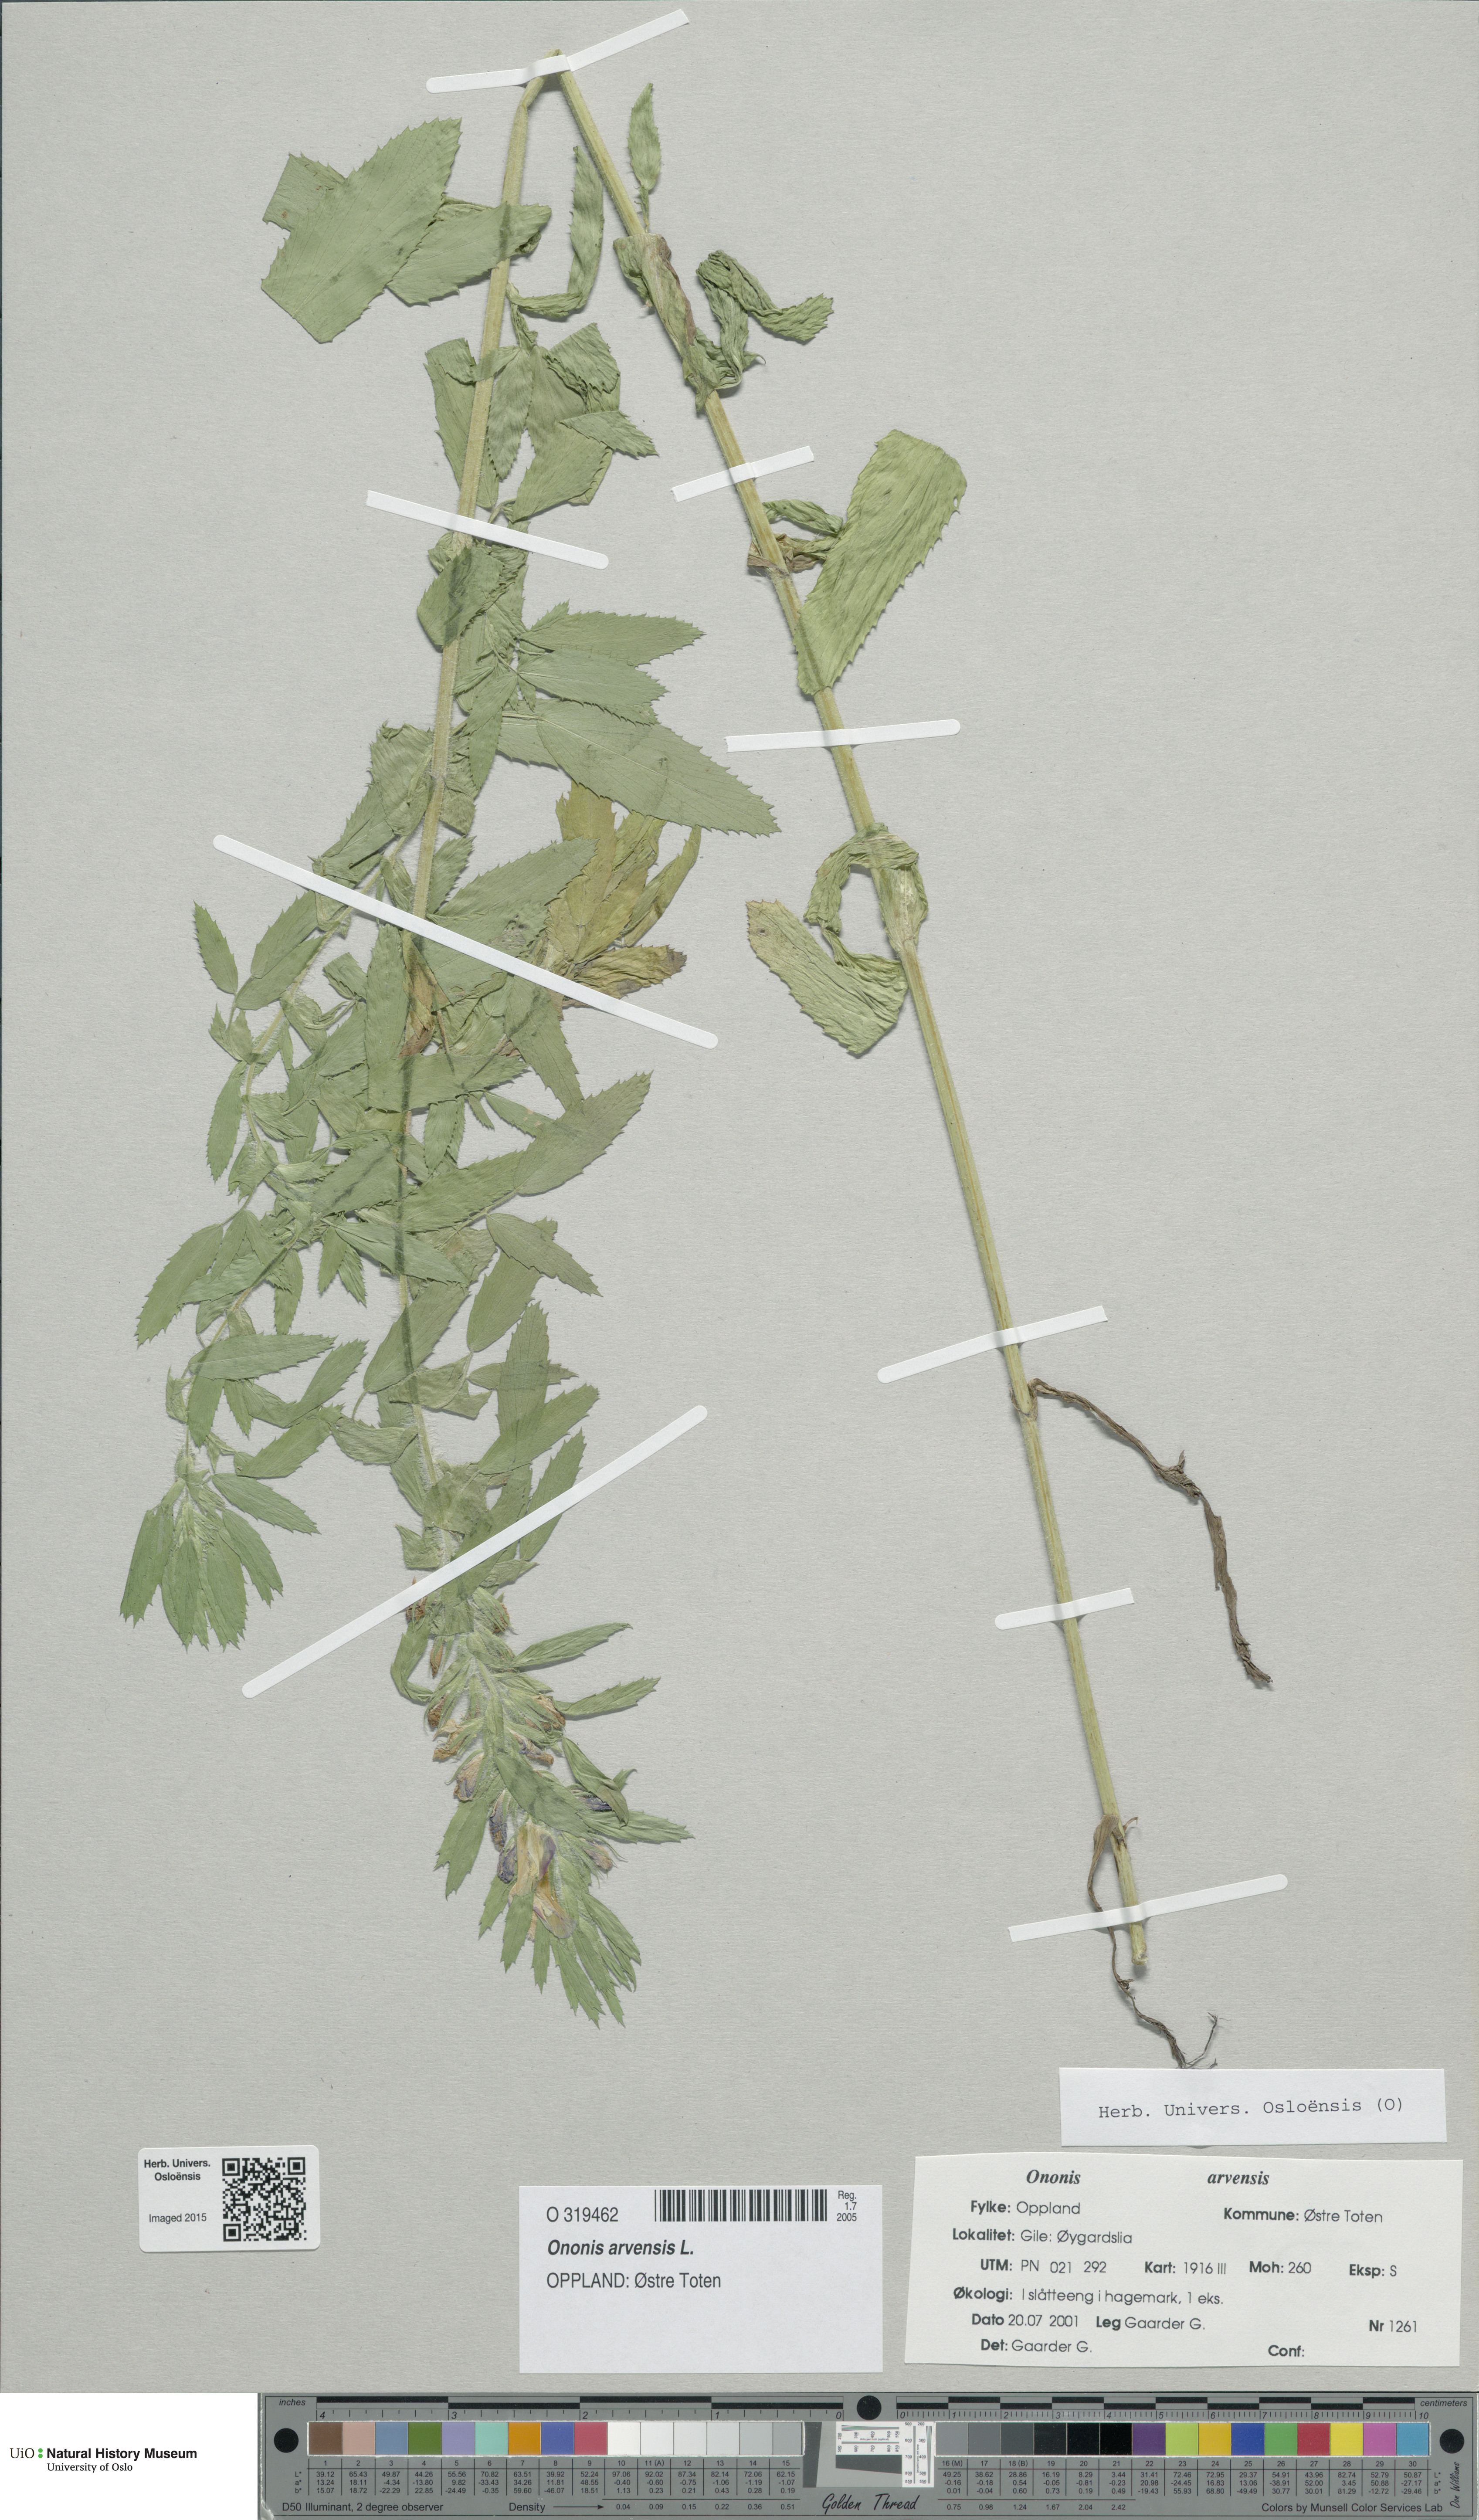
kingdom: Plantae
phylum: Tracheophyta
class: Magnoliopsida
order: Fabales
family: Fabaceae
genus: Ononis
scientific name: Ononis arvensis
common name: Field restharrow
